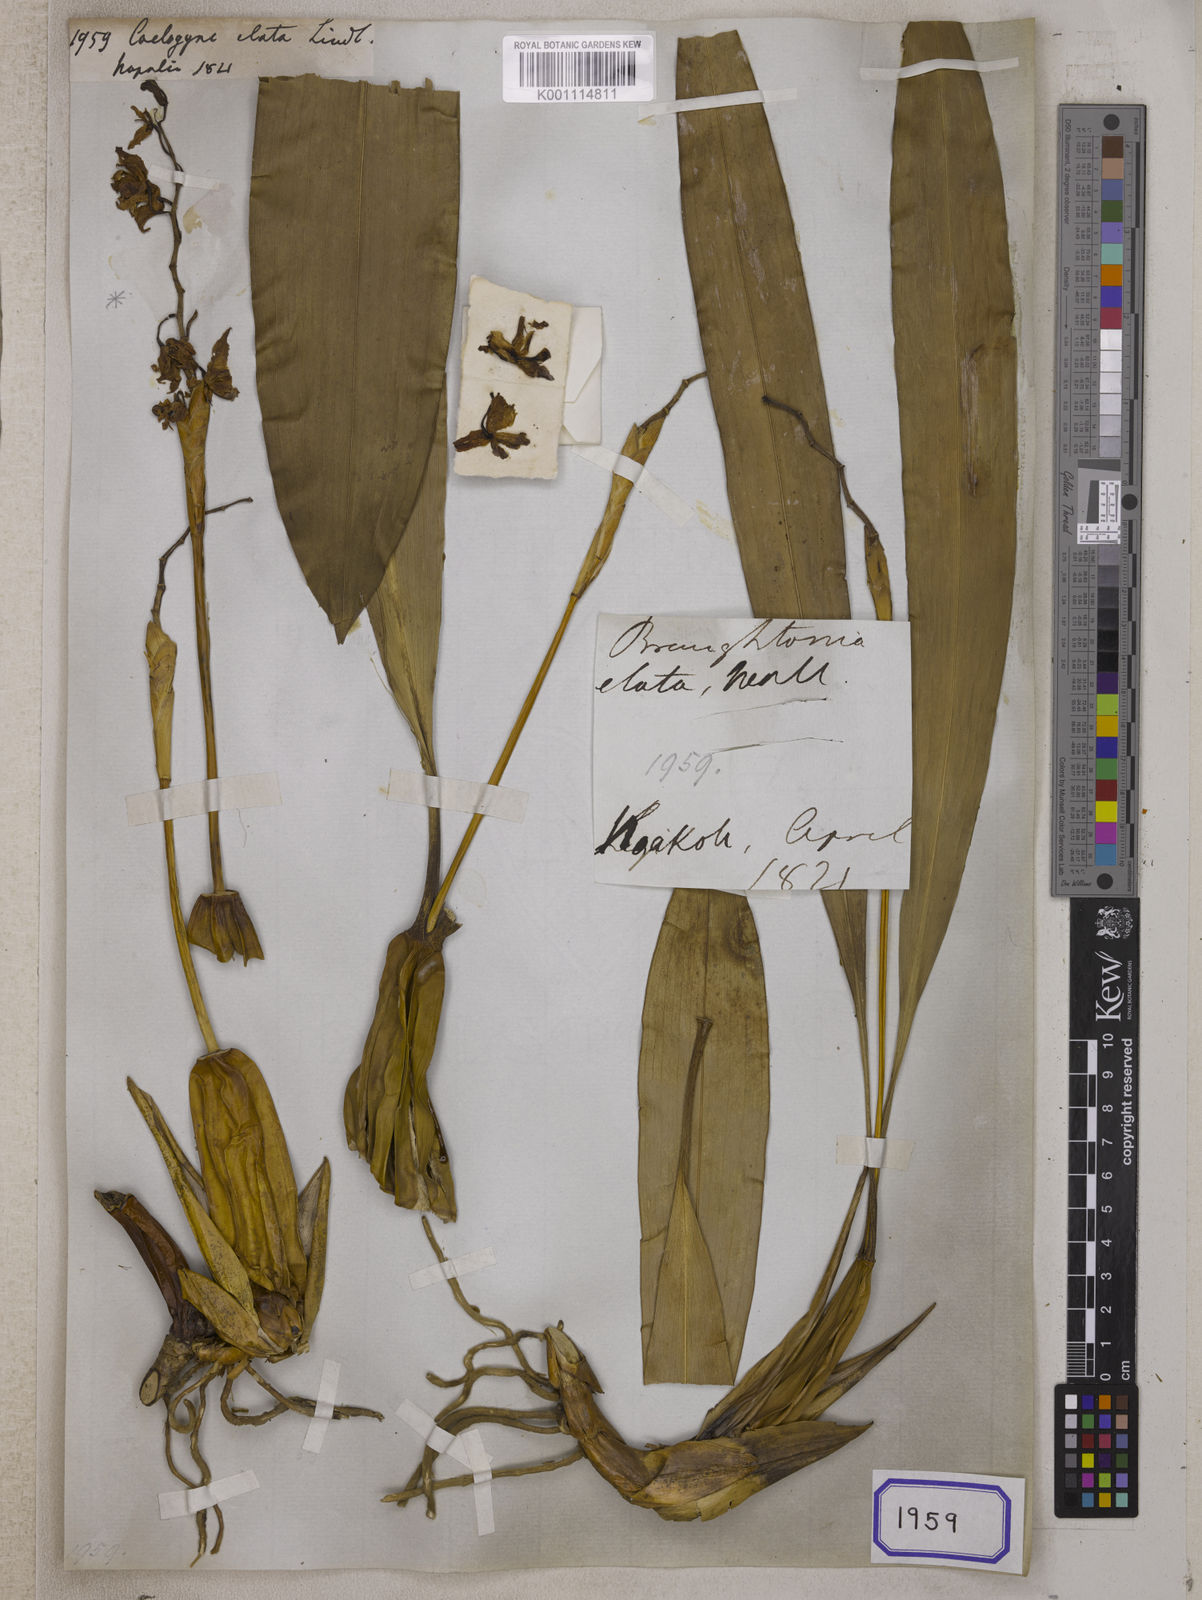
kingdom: Plantae
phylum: Tracheophyta
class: Liliopsida
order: Asparagales
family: Orchidaceae
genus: Coelogyne
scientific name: Coelogyne stricta
